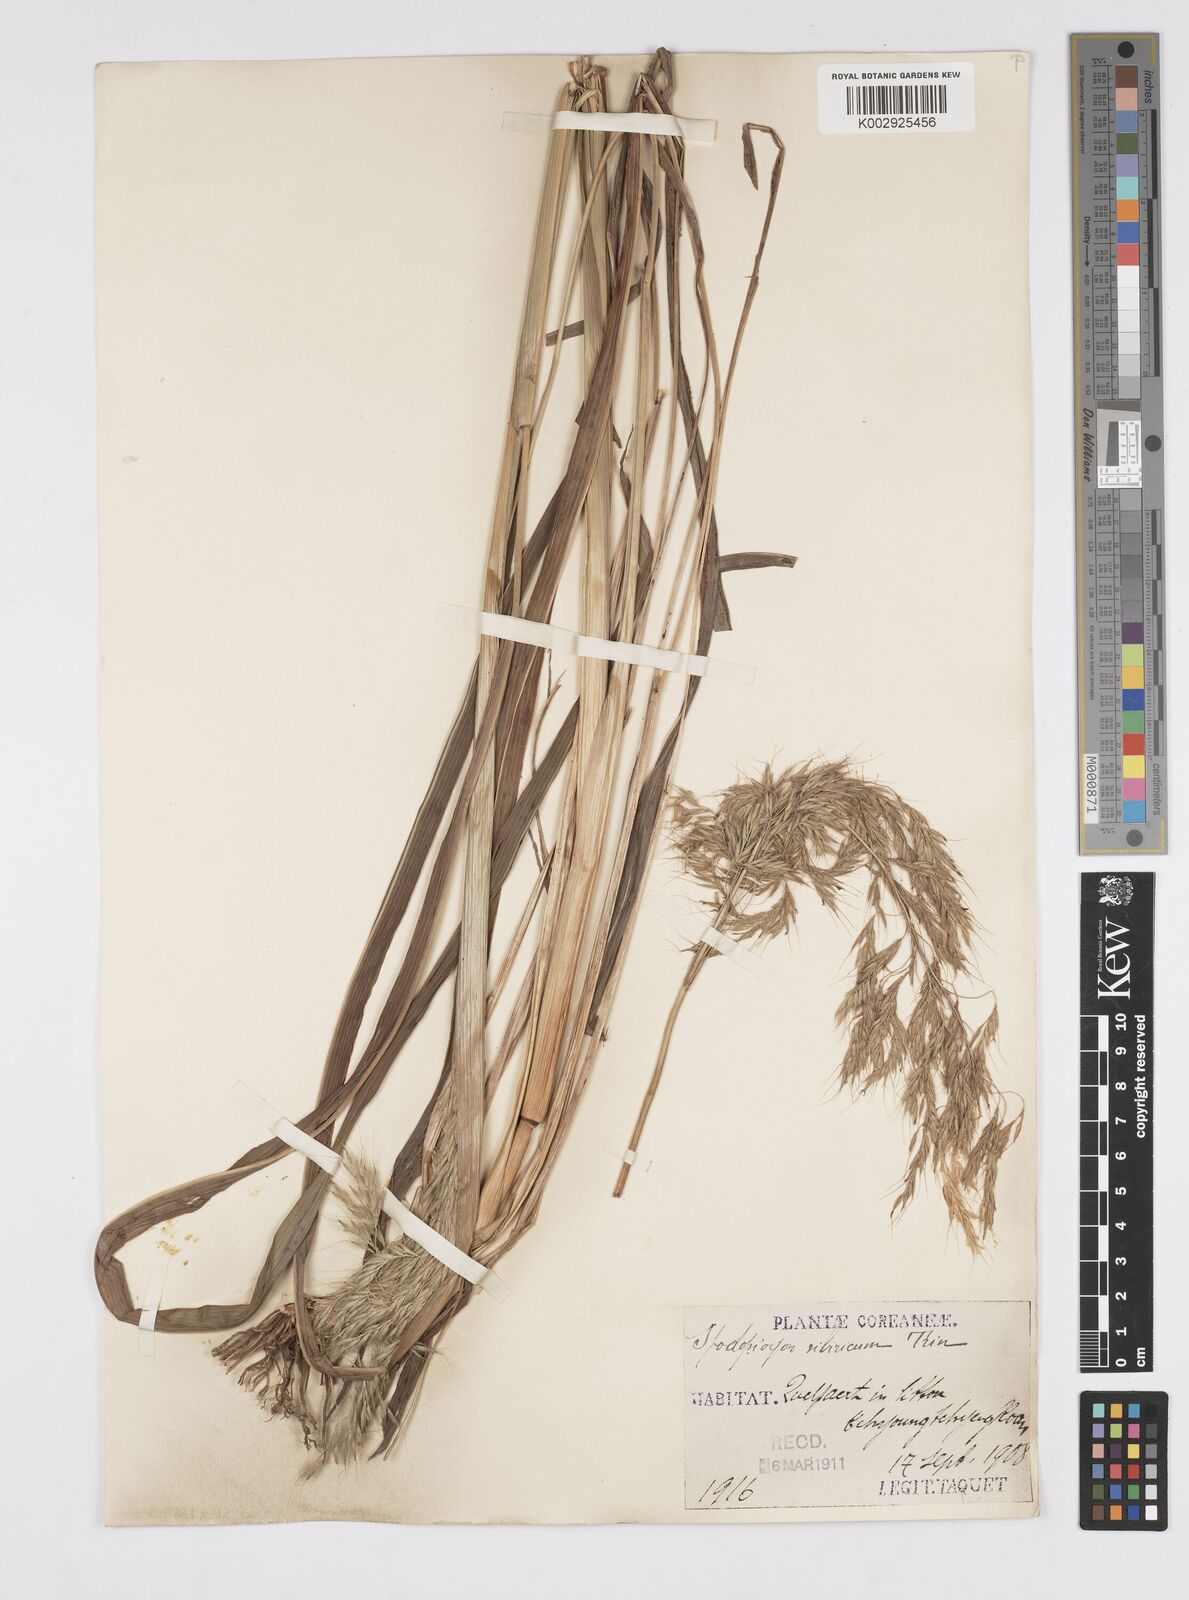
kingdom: Plantae
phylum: Tracheophyta
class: Liliopsida
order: Poales
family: Poaceae
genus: Spodiopogon
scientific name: Spodiopogon cotulifer
